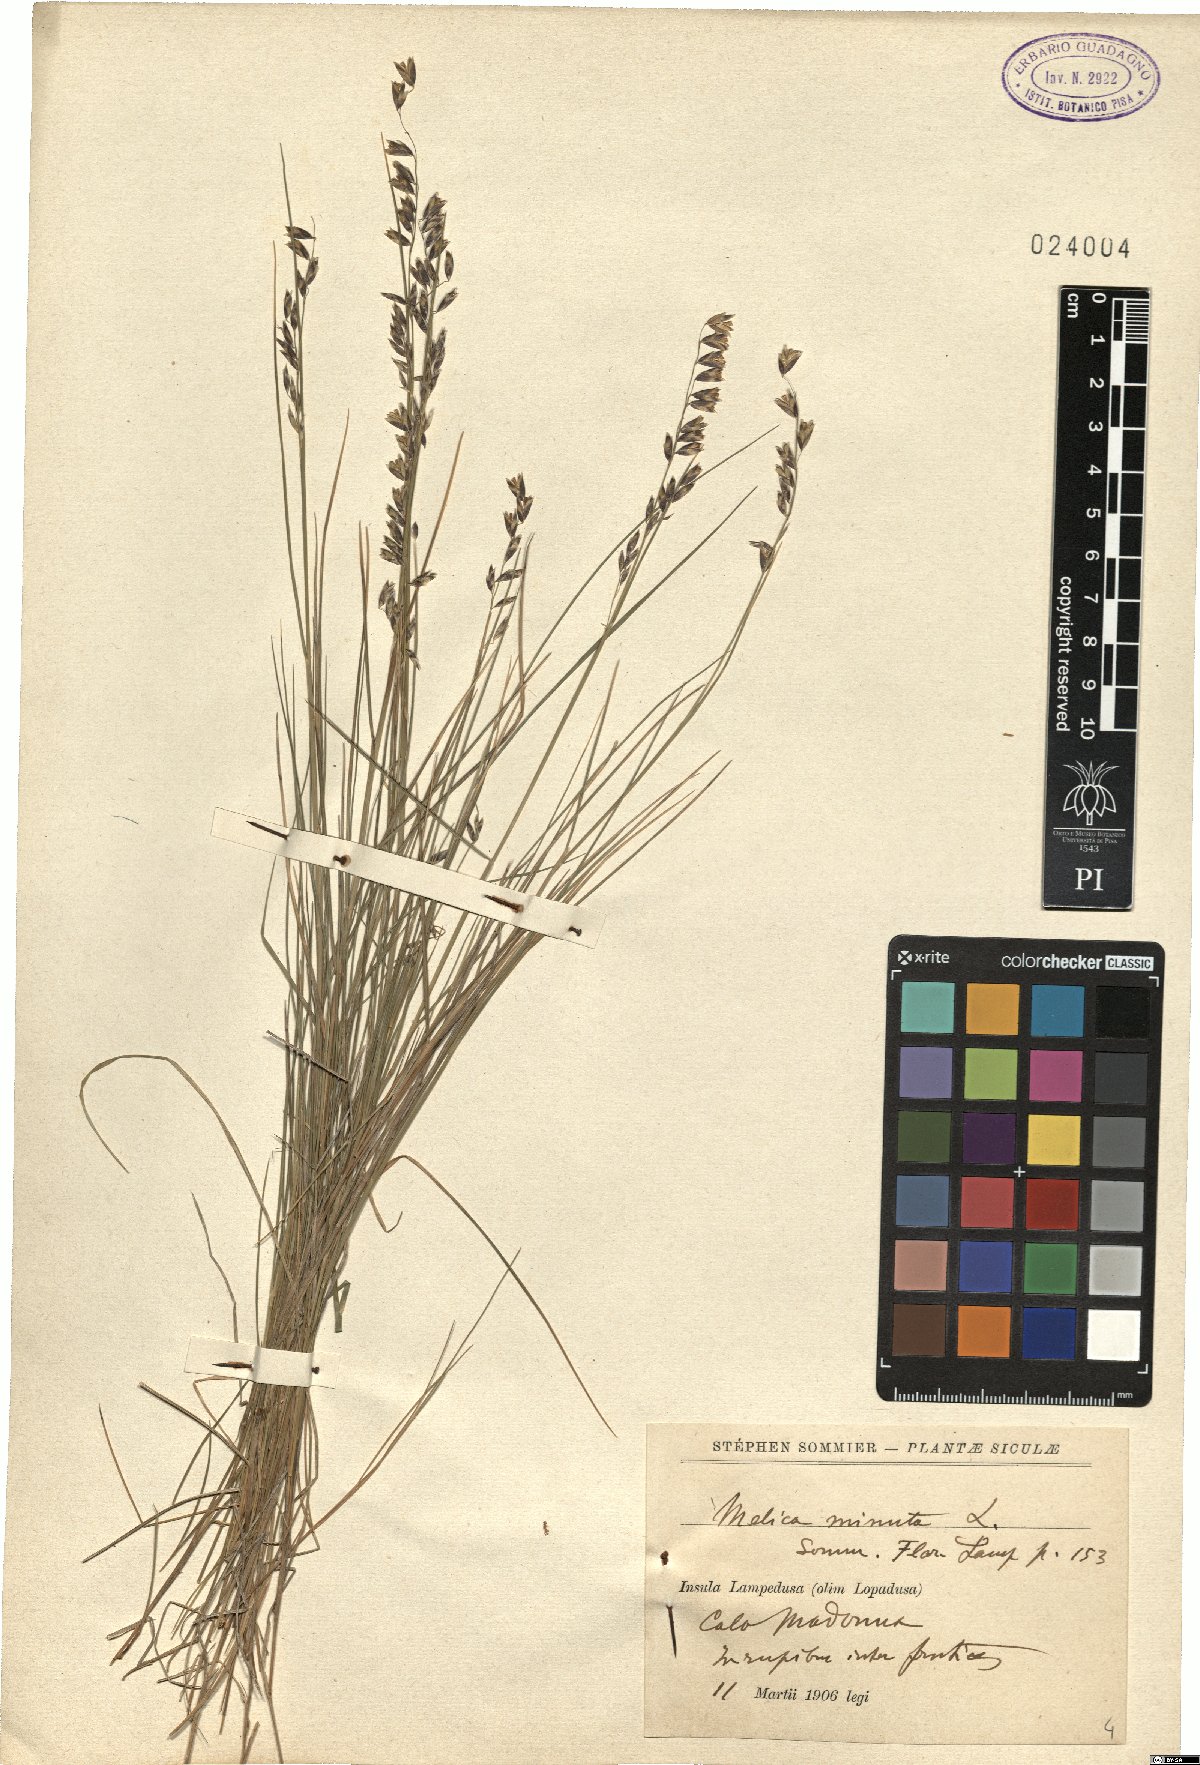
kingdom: Plantae
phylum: Tracheophyta
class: Liliopsida
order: Poales
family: Poaceae
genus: Melica
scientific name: Melica minuta
